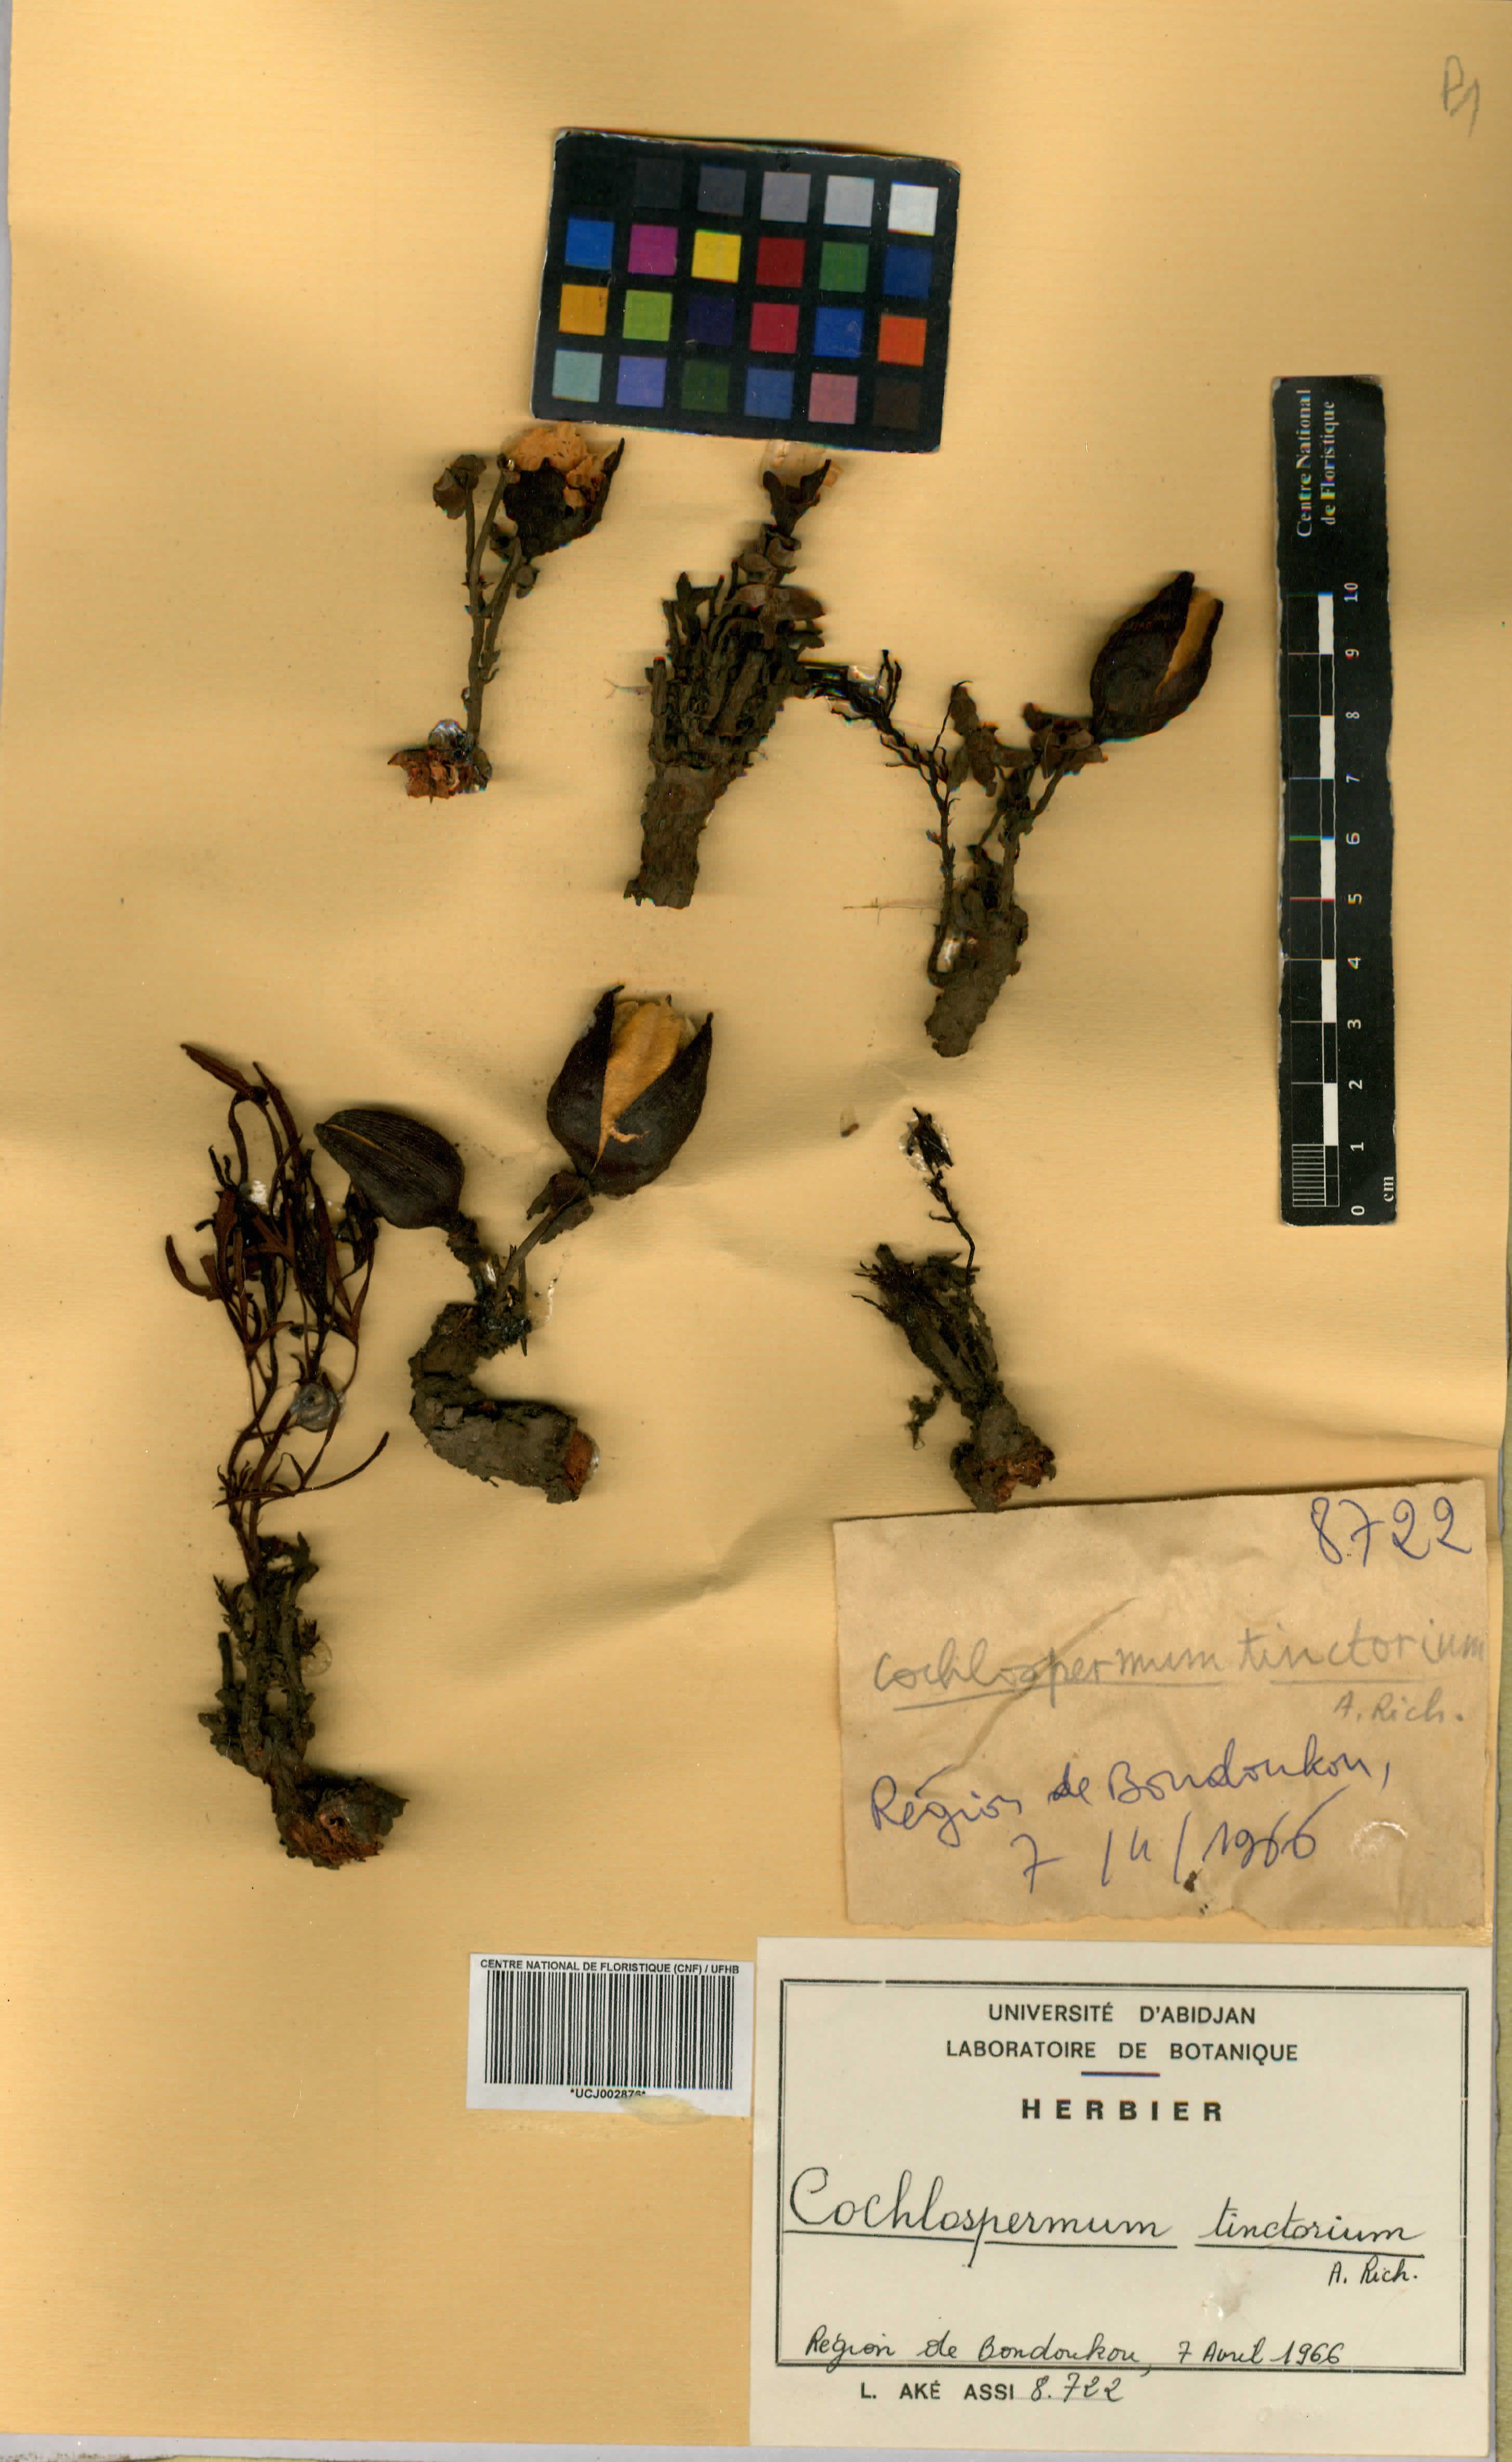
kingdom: Plantae
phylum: Tracheophyta
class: Magnoliopsida
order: Malvales
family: Cochlospermaceae
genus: Cochlospermum
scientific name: Cochlospermum tinctorium
